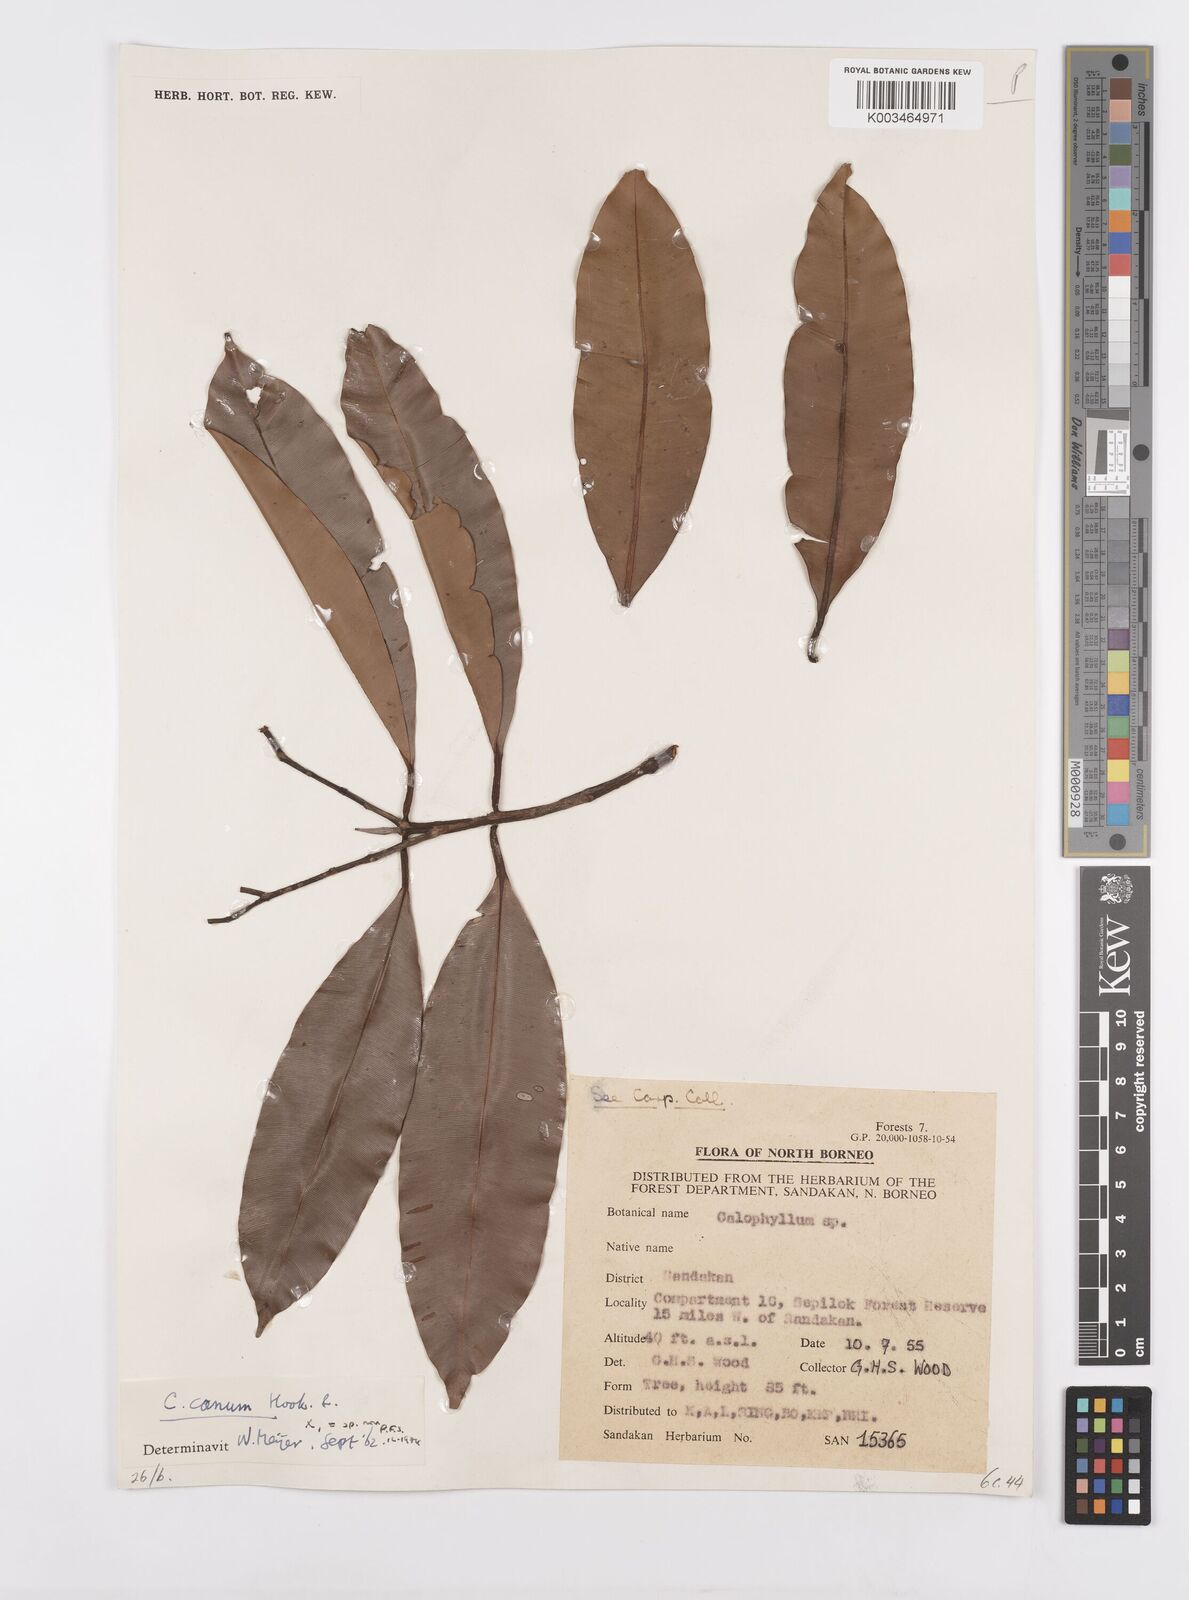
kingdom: Plantae
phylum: Tracheophyta
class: Magnoliopsida
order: Malpighiales
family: Calophyllaceae
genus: Calophyllum
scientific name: Calophyllum blancoi
